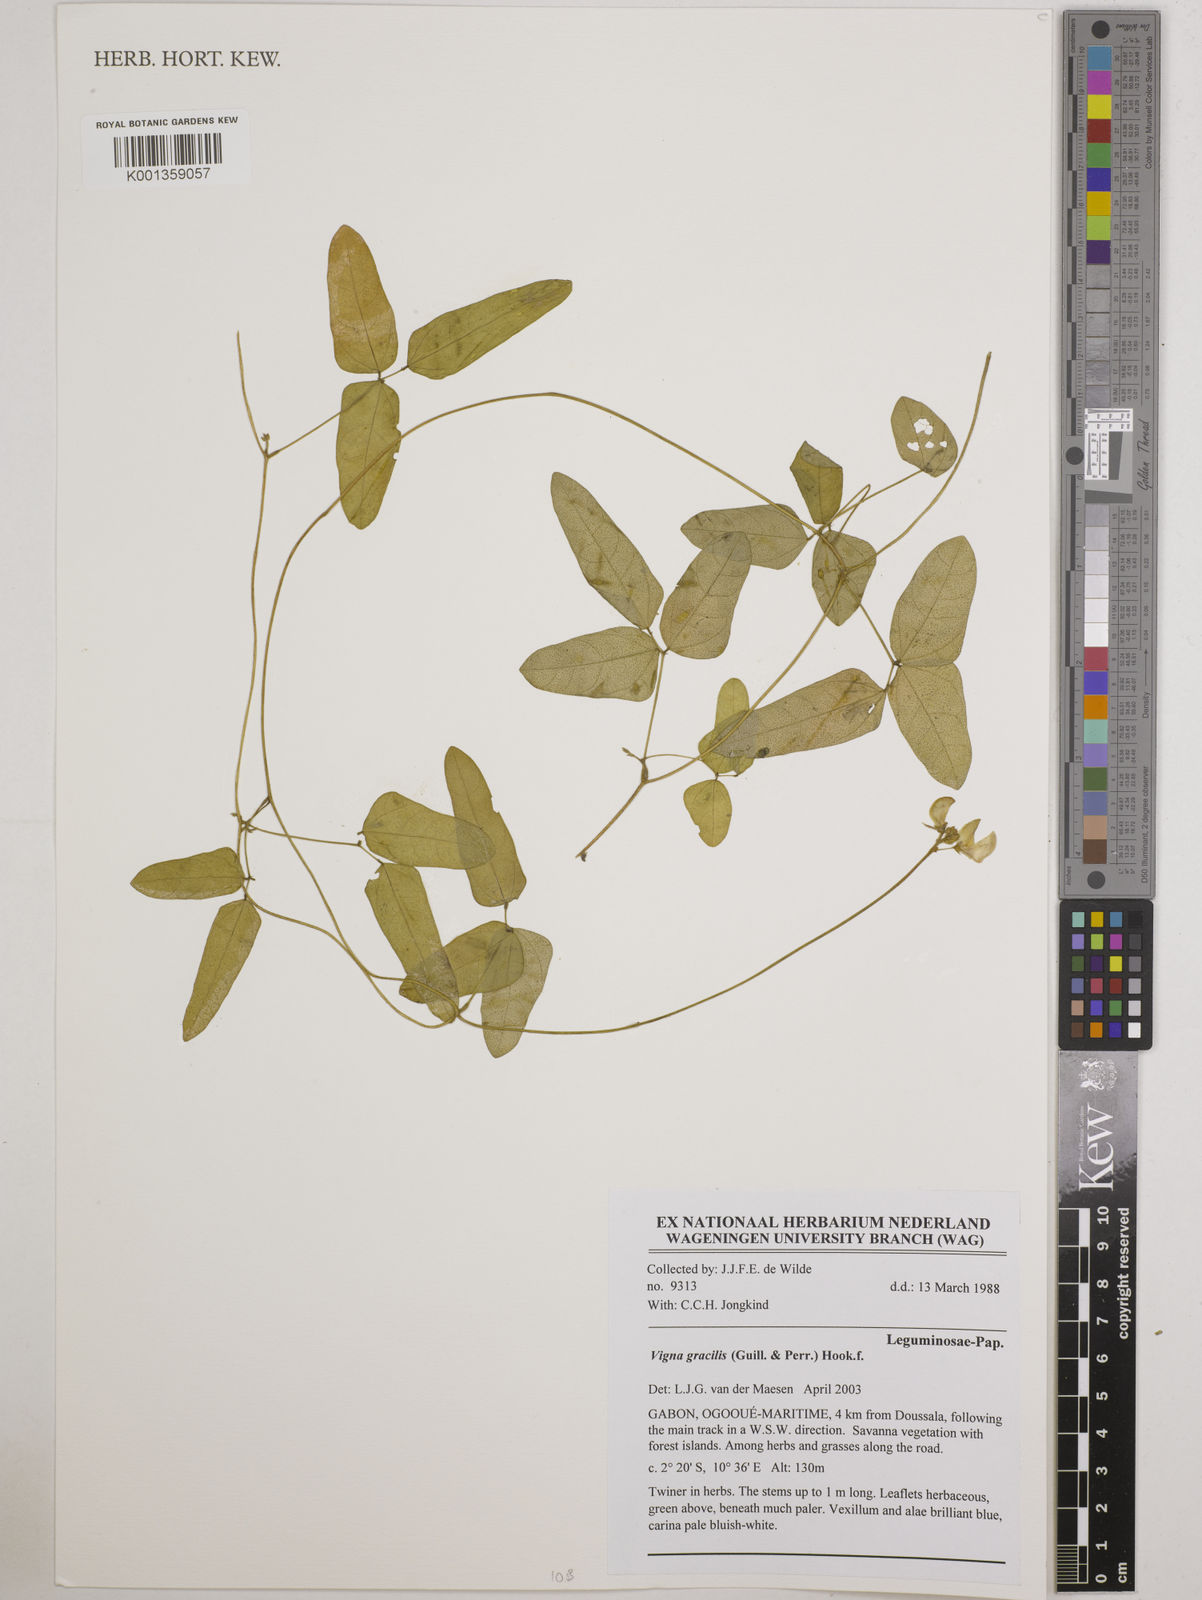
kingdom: Plantae
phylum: Tracheophyta
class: Magnoliopsida
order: Fabales
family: Fabaceae
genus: Vigna
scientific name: Vigna gracilis
